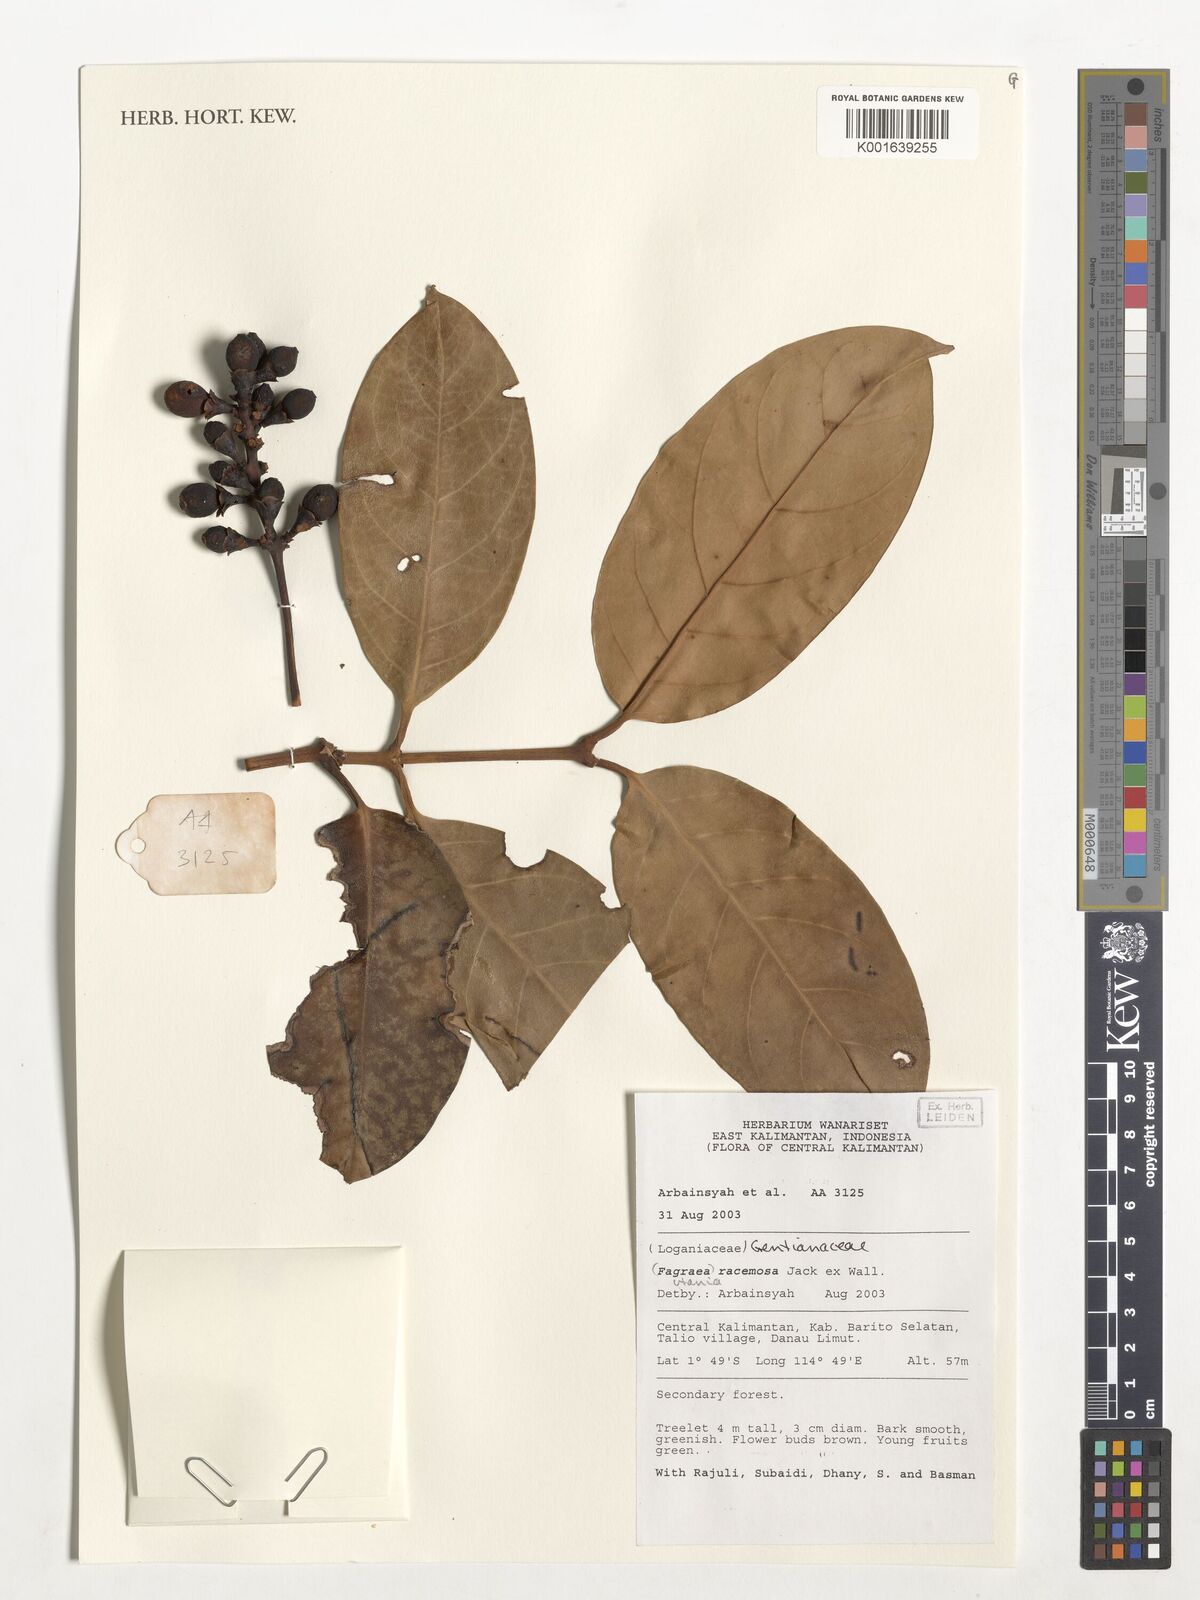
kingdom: Plantae
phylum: Tracheophyta
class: Magnoliopsida
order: Gentianales
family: Gentianaceae
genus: Utania
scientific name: Utania racemosa
